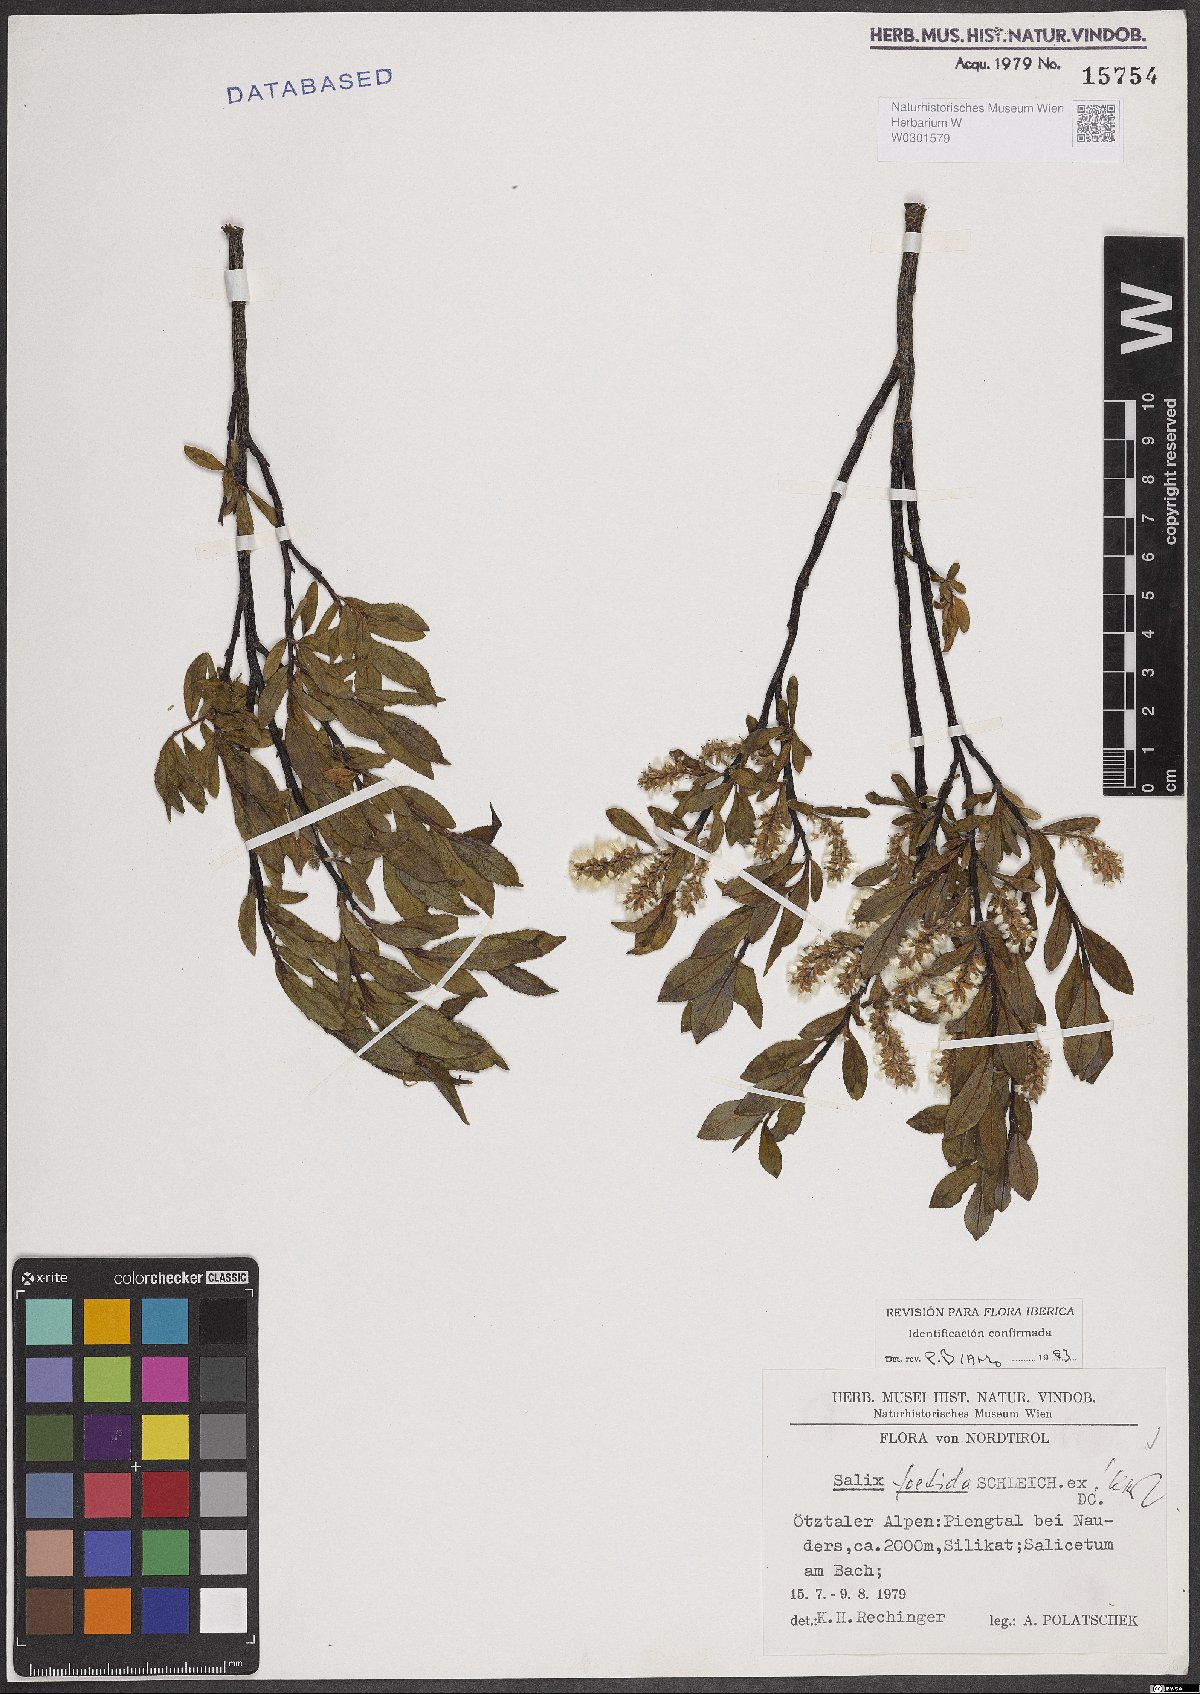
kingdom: Plantae
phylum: Tracheophyta
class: Magnoliopsida
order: Malpighiales
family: Salicaceae
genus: Salix
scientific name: Salix foetida
